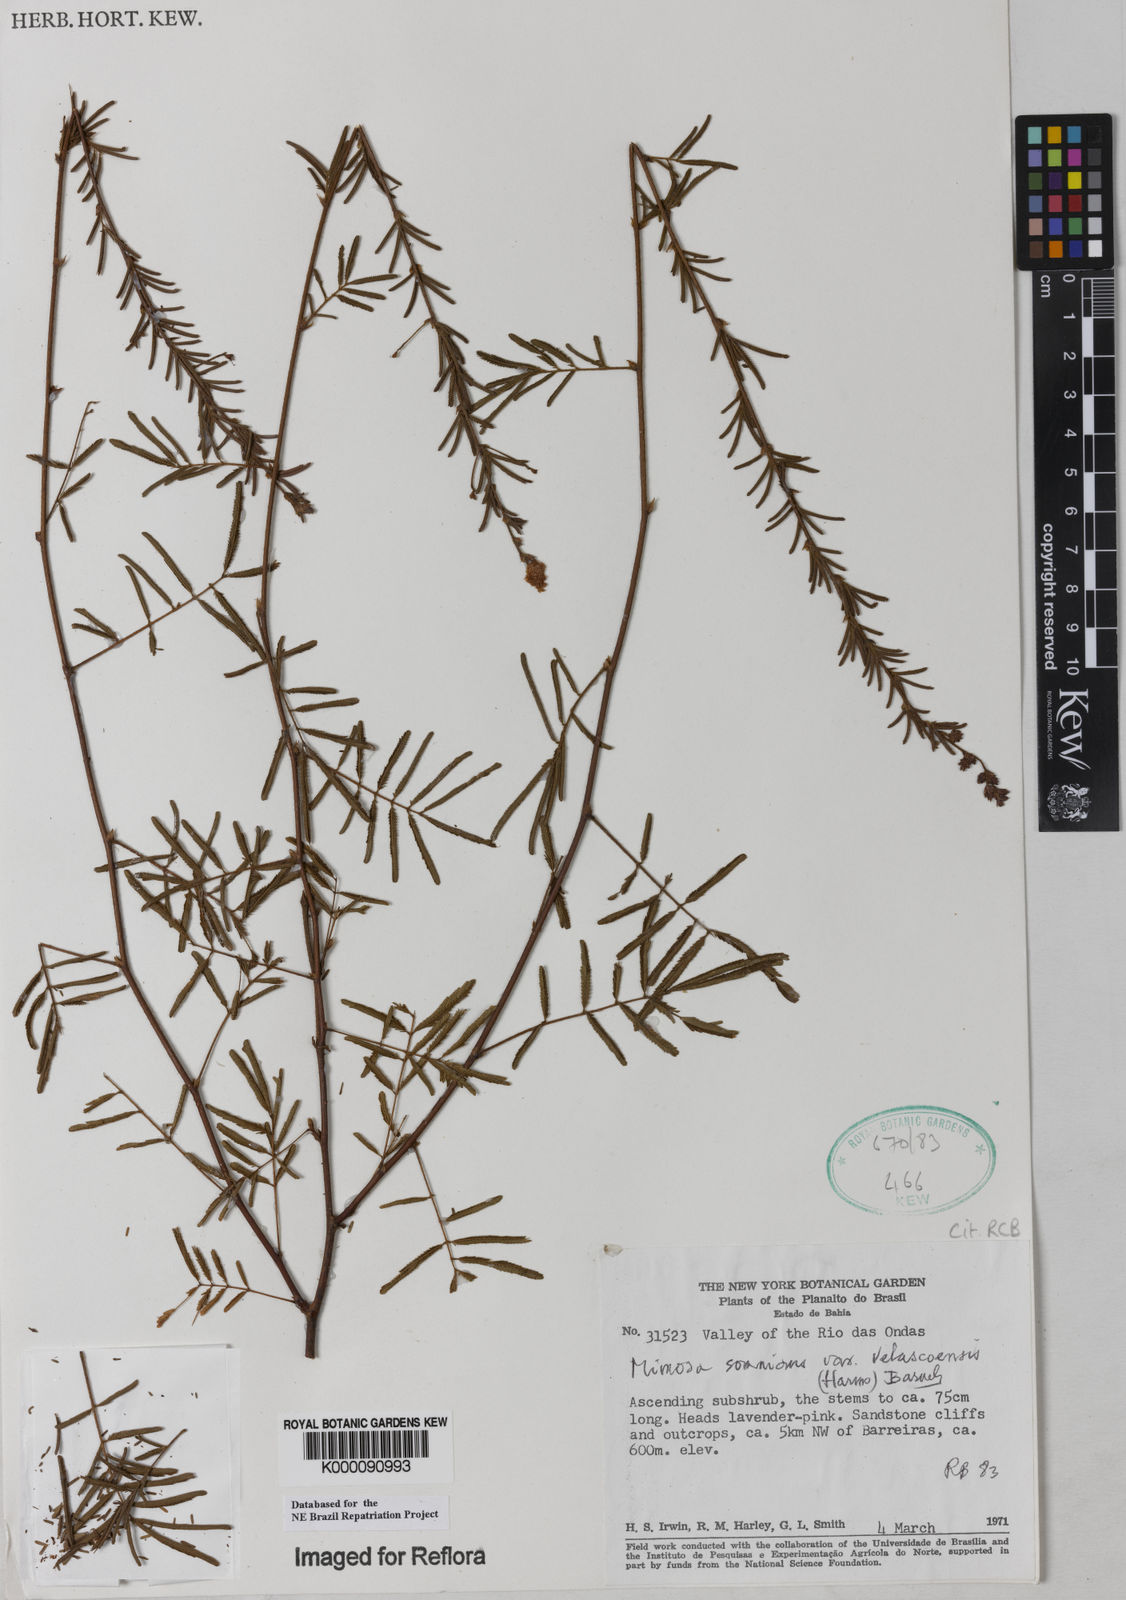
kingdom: Plantae
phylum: Tracheophyta
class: Magnoliopsida
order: Fabales
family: Fabaceae
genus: Mimosa
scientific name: Mimosa somnians
